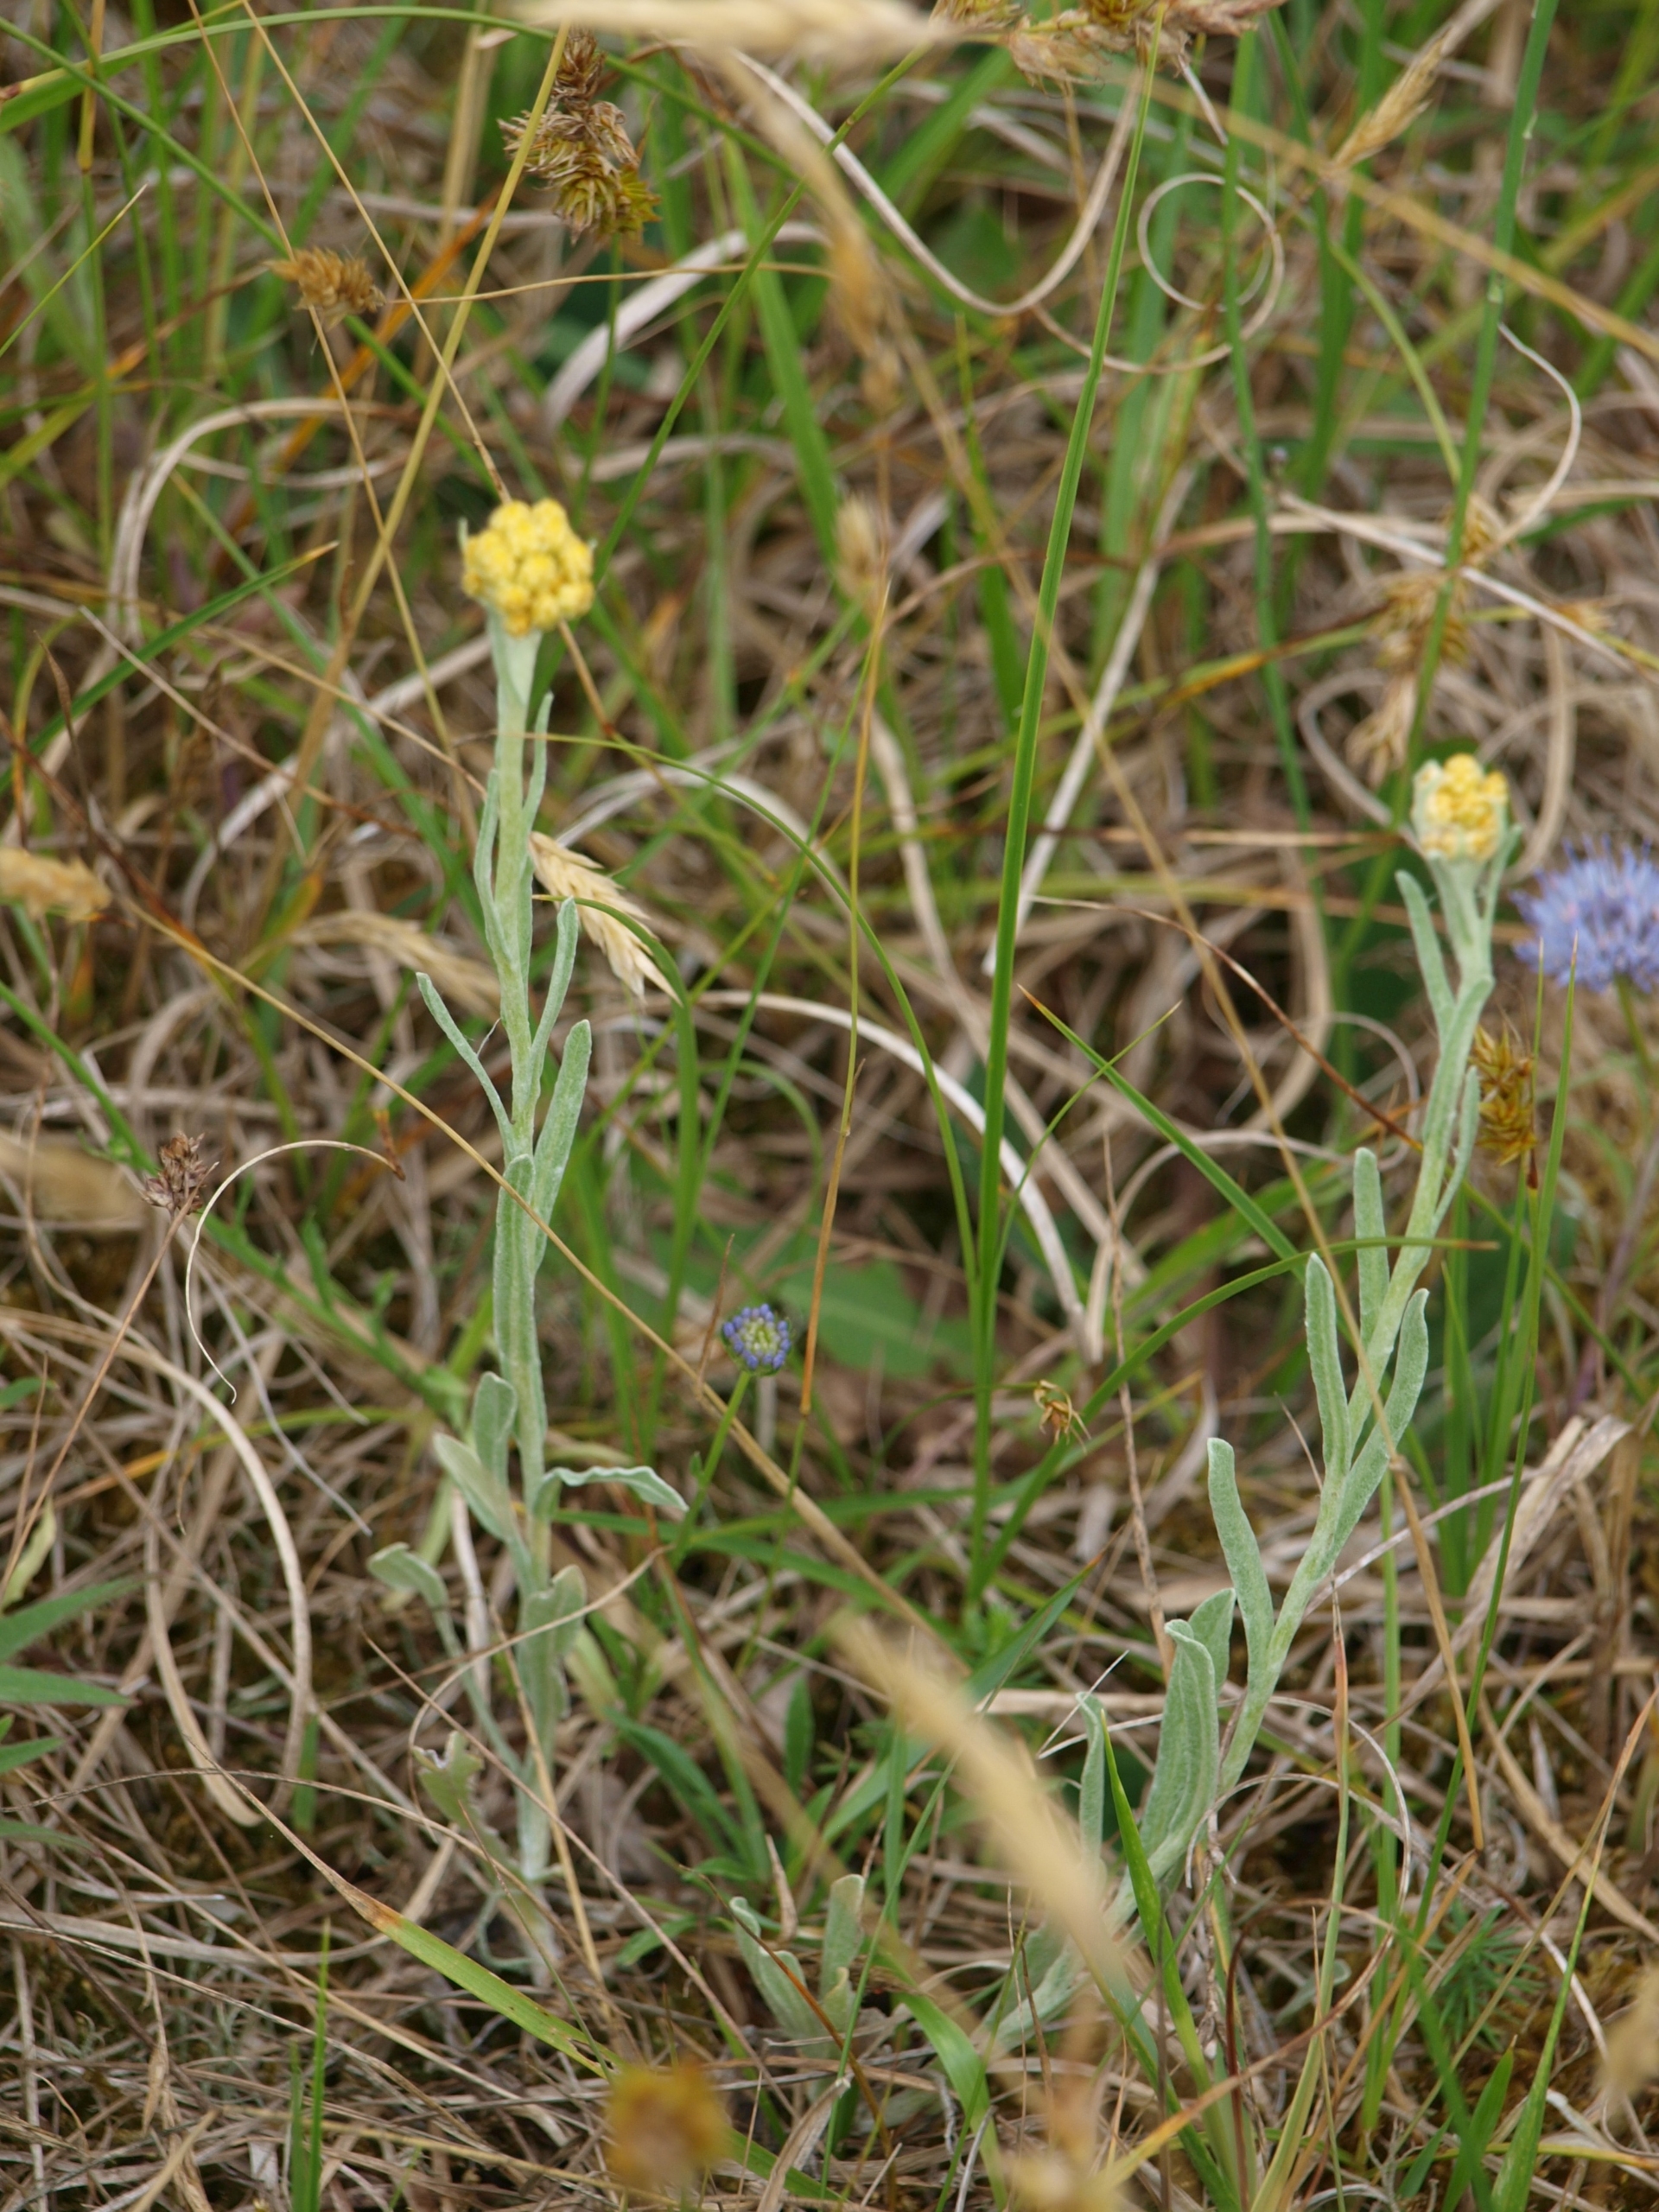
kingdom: Plantae
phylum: Tracheophyta
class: Magnoliopsida
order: Asterales
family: Asteraceae
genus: Helichrysum
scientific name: Helichrysum arenarium
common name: Gul evighedsblomst
